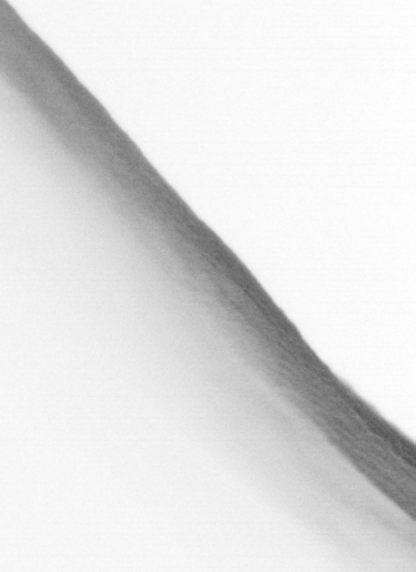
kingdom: Animalia
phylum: Chordata
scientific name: Chordata
